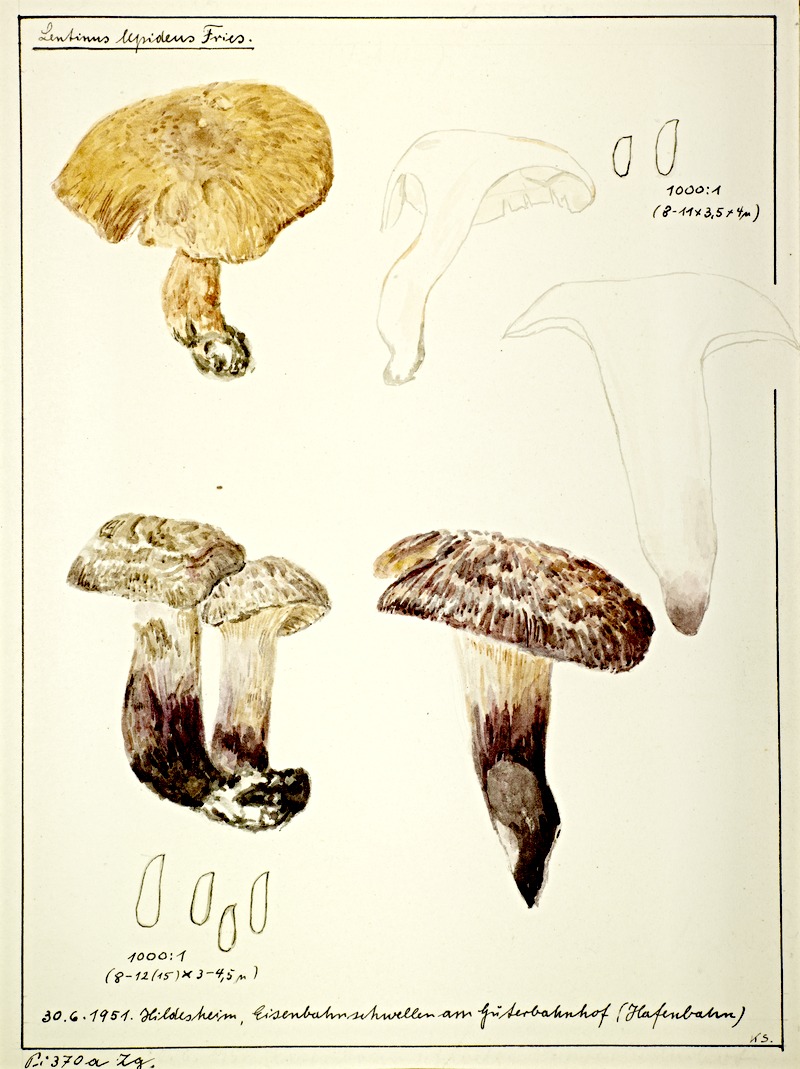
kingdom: Fungi
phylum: Basidiomycota
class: Agaricomycetes
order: Gloeophyllales
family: Gloeophyllaceae
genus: Neolentinus
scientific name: Neolentinus lepideus
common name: Scaly sawgill
